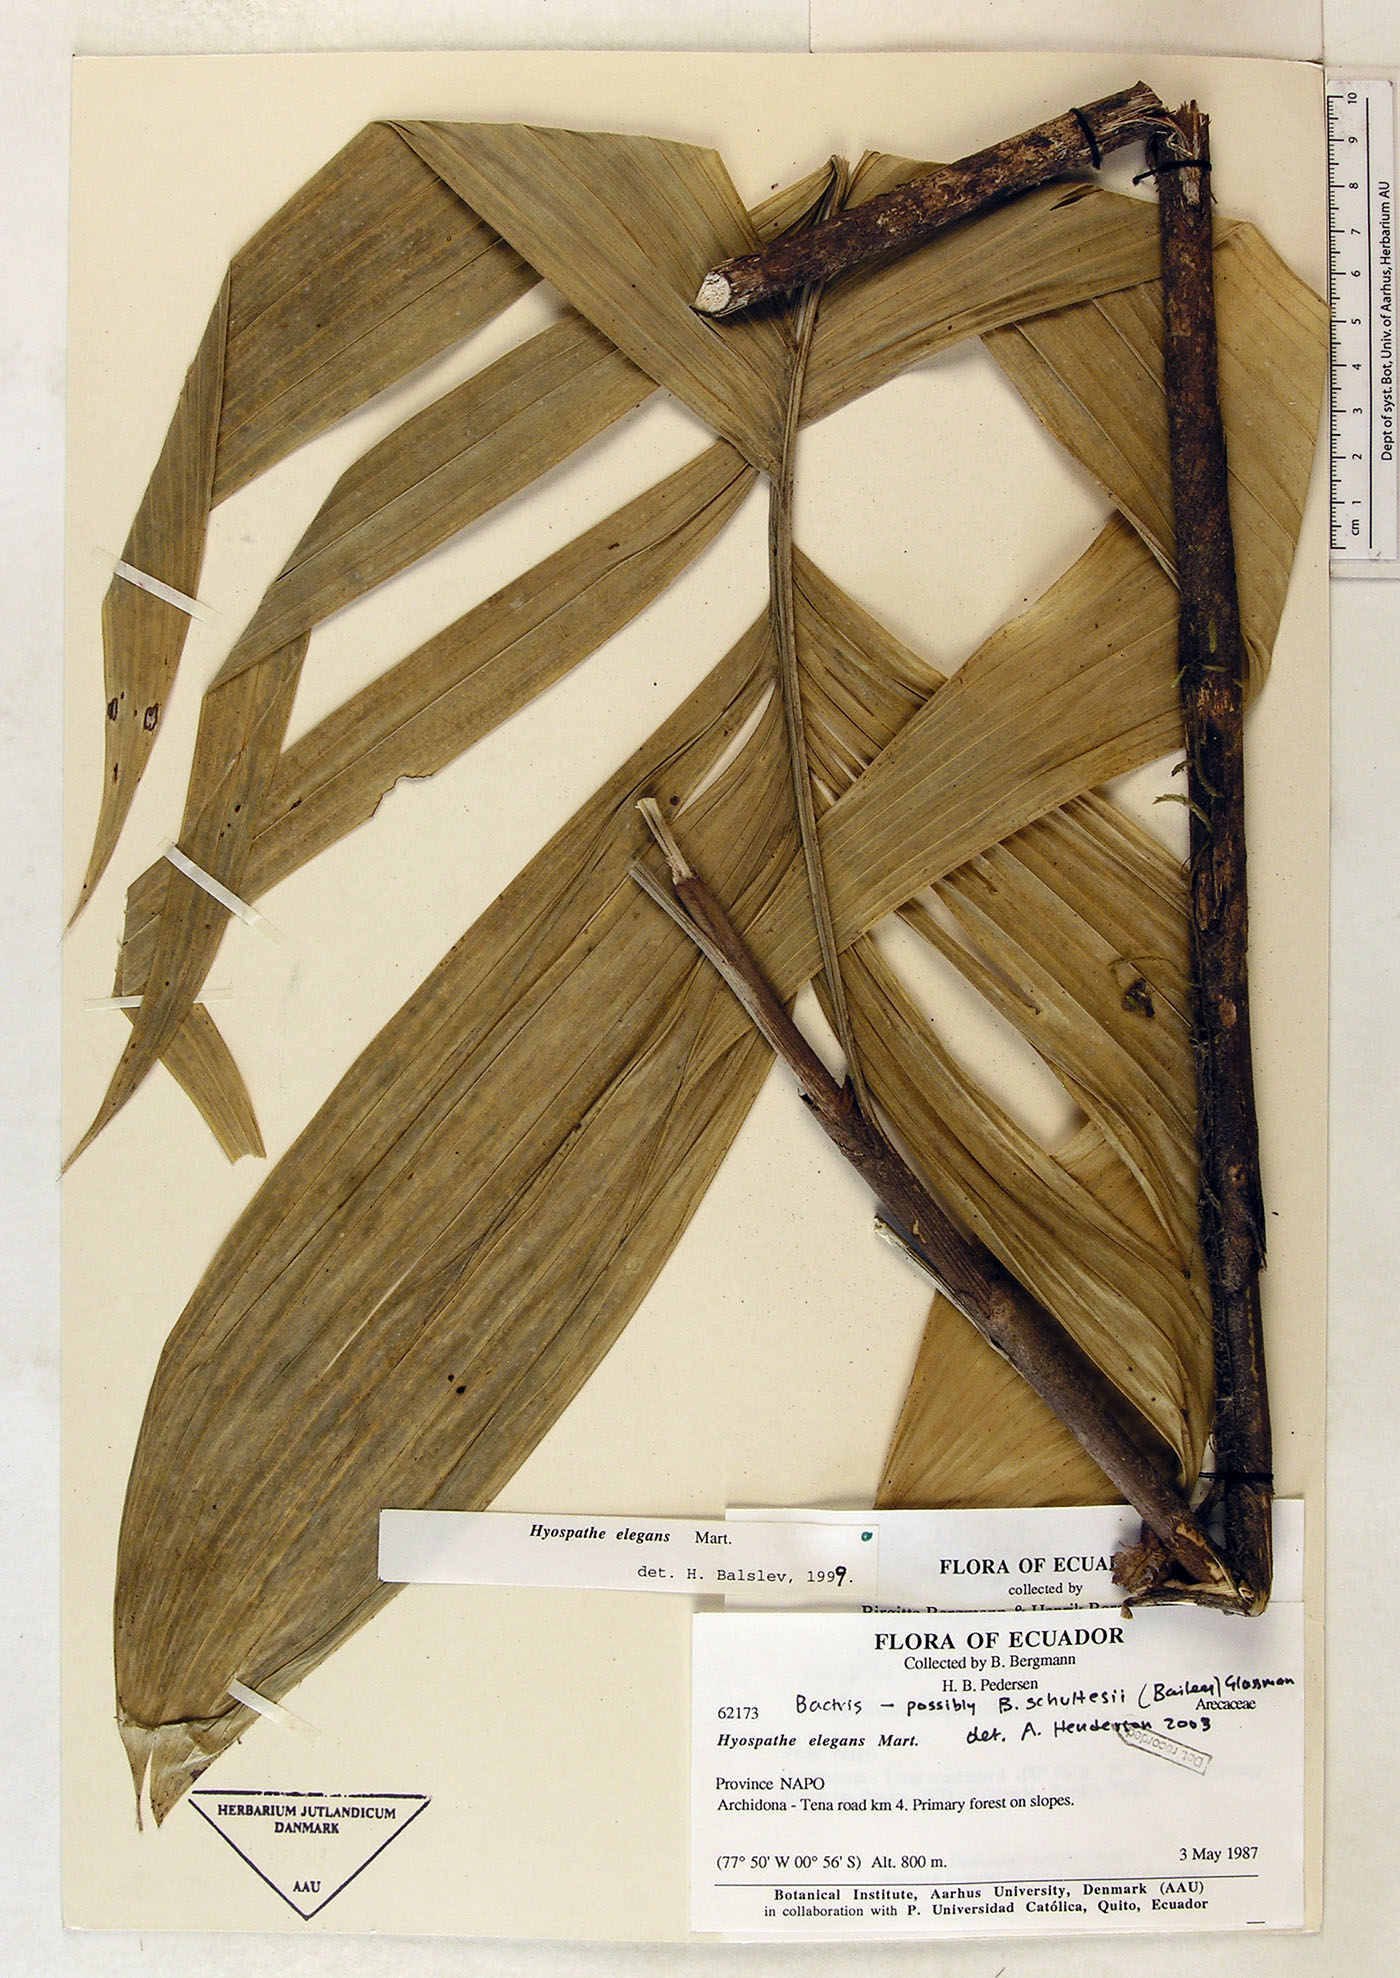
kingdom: Plantae
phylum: Tracheophyta
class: Liliopsida
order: Arecales
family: Arecaceae
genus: Bactris
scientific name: Bactris schultesii
